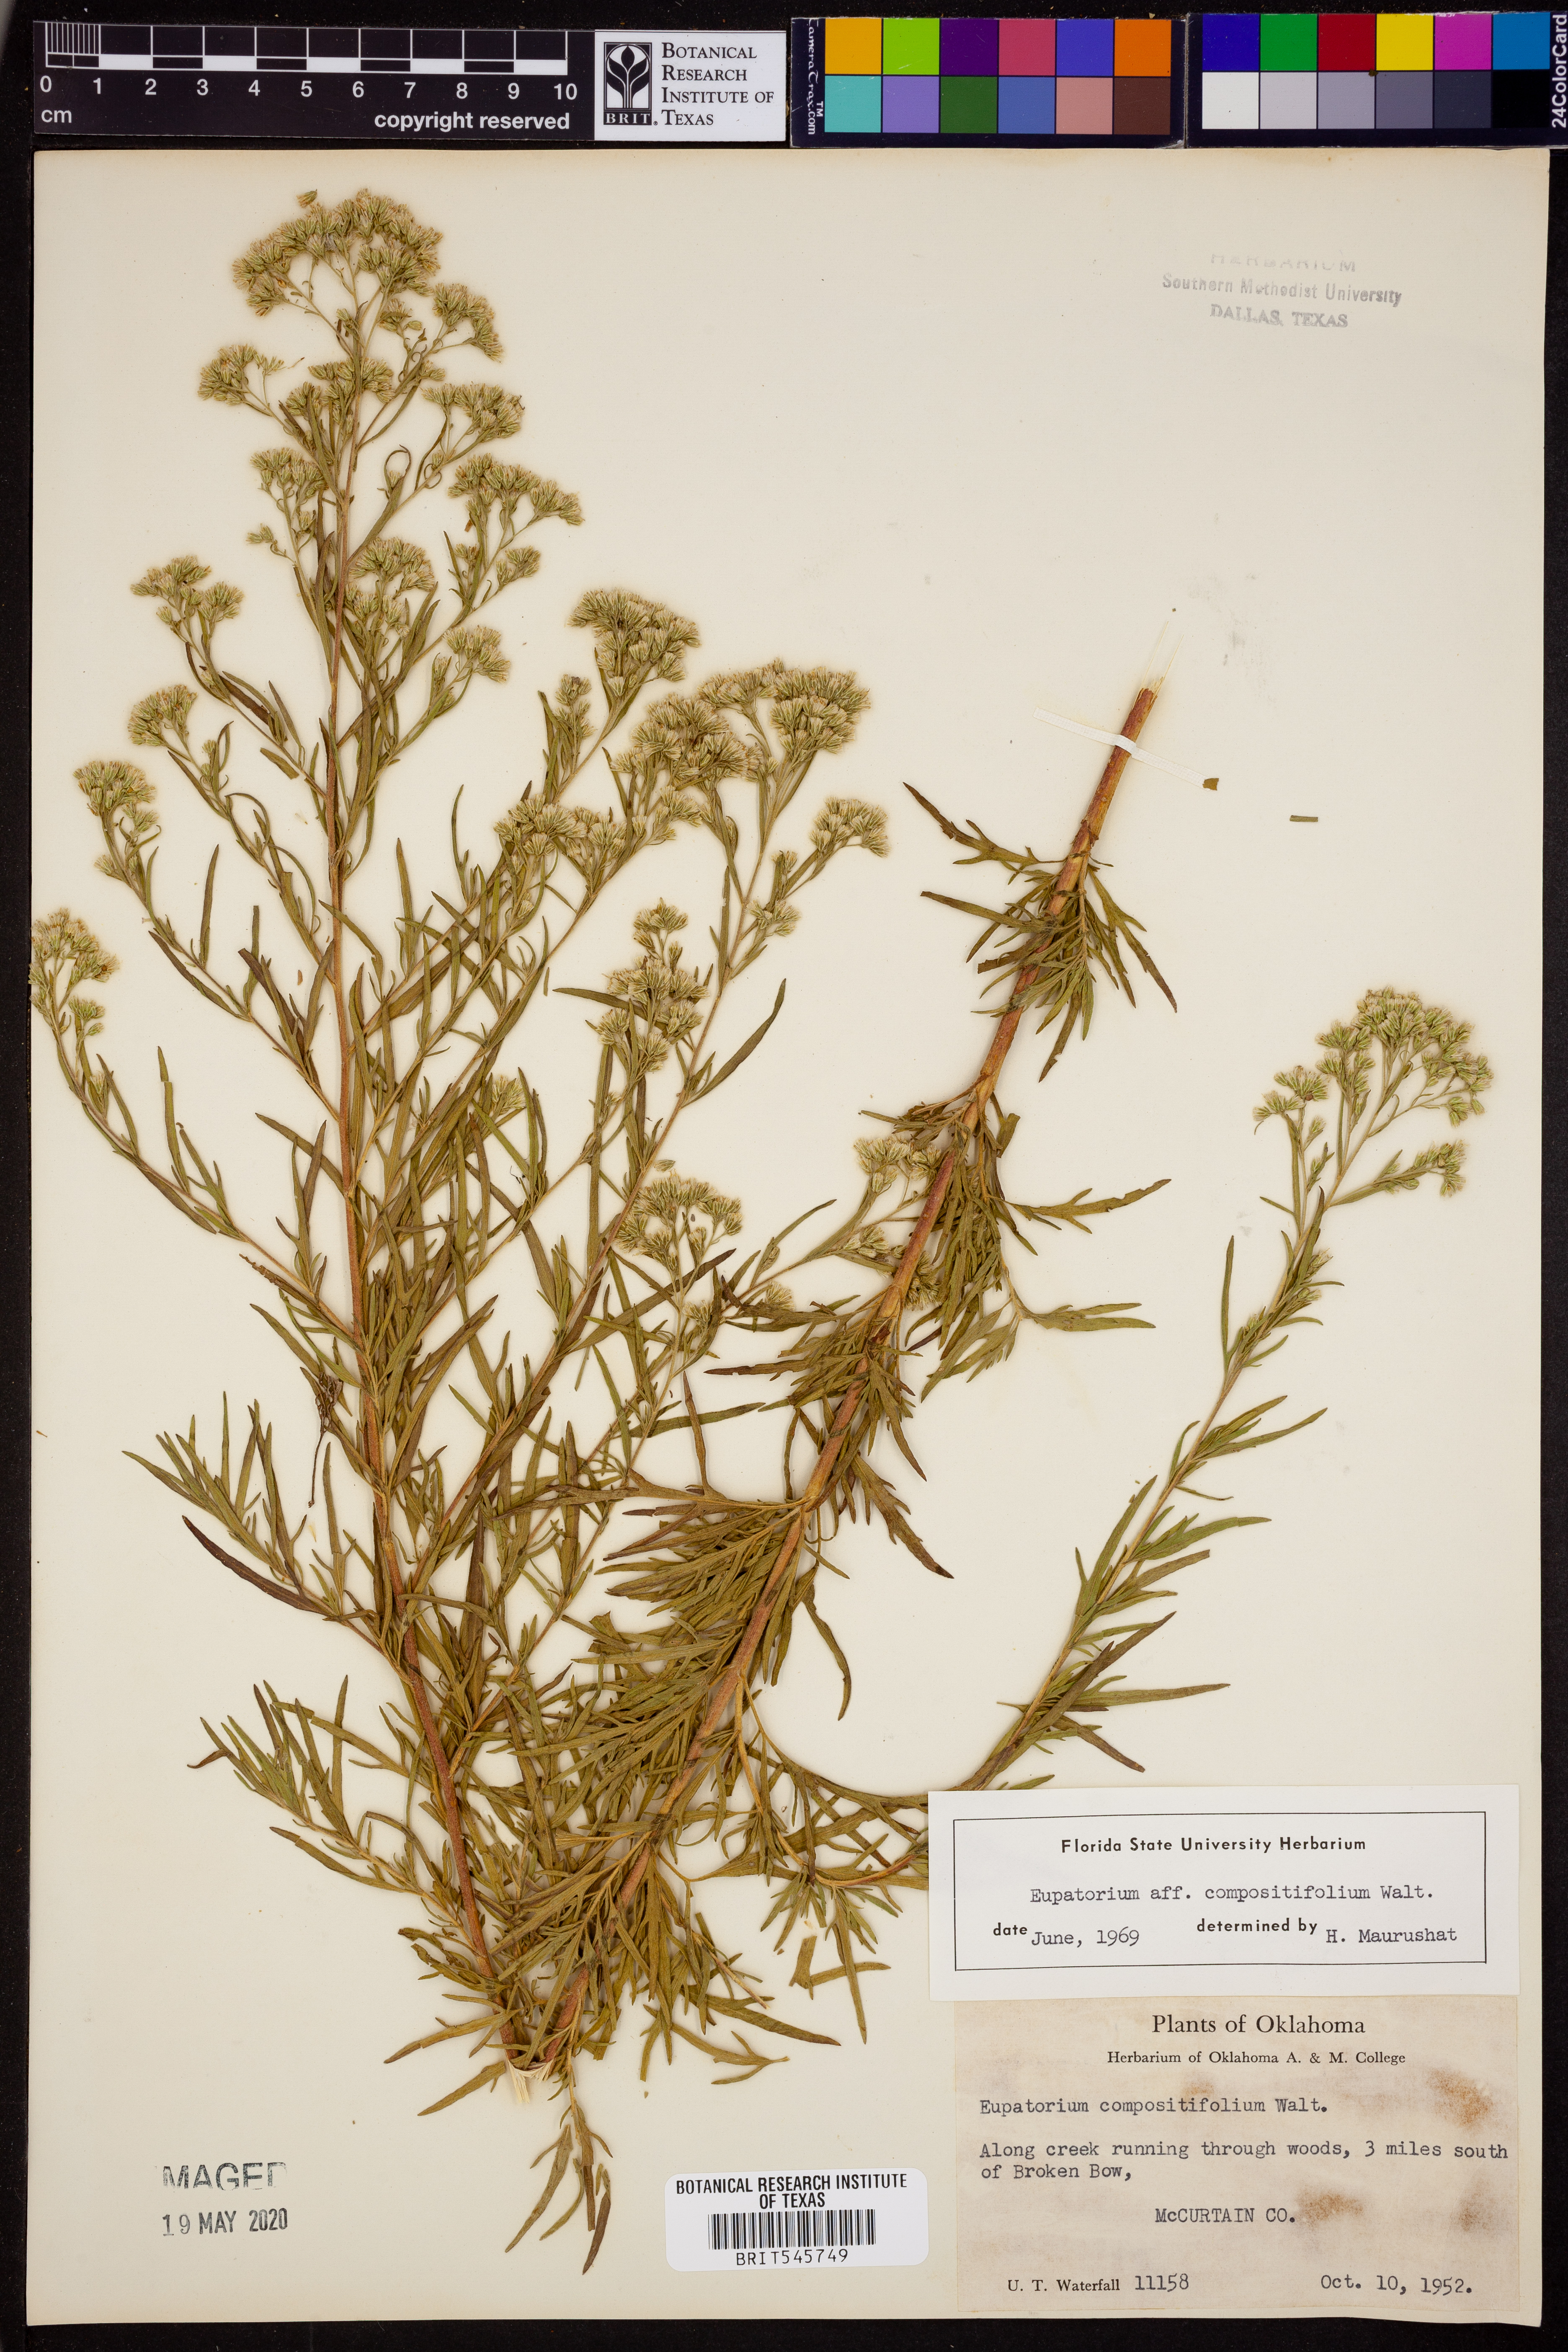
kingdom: Plantae
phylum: Tracheophyta
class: Magnoliopsida
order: Asterales
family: Asteraceae
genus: Eupatorium
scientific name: Eupatorium compositifolium
